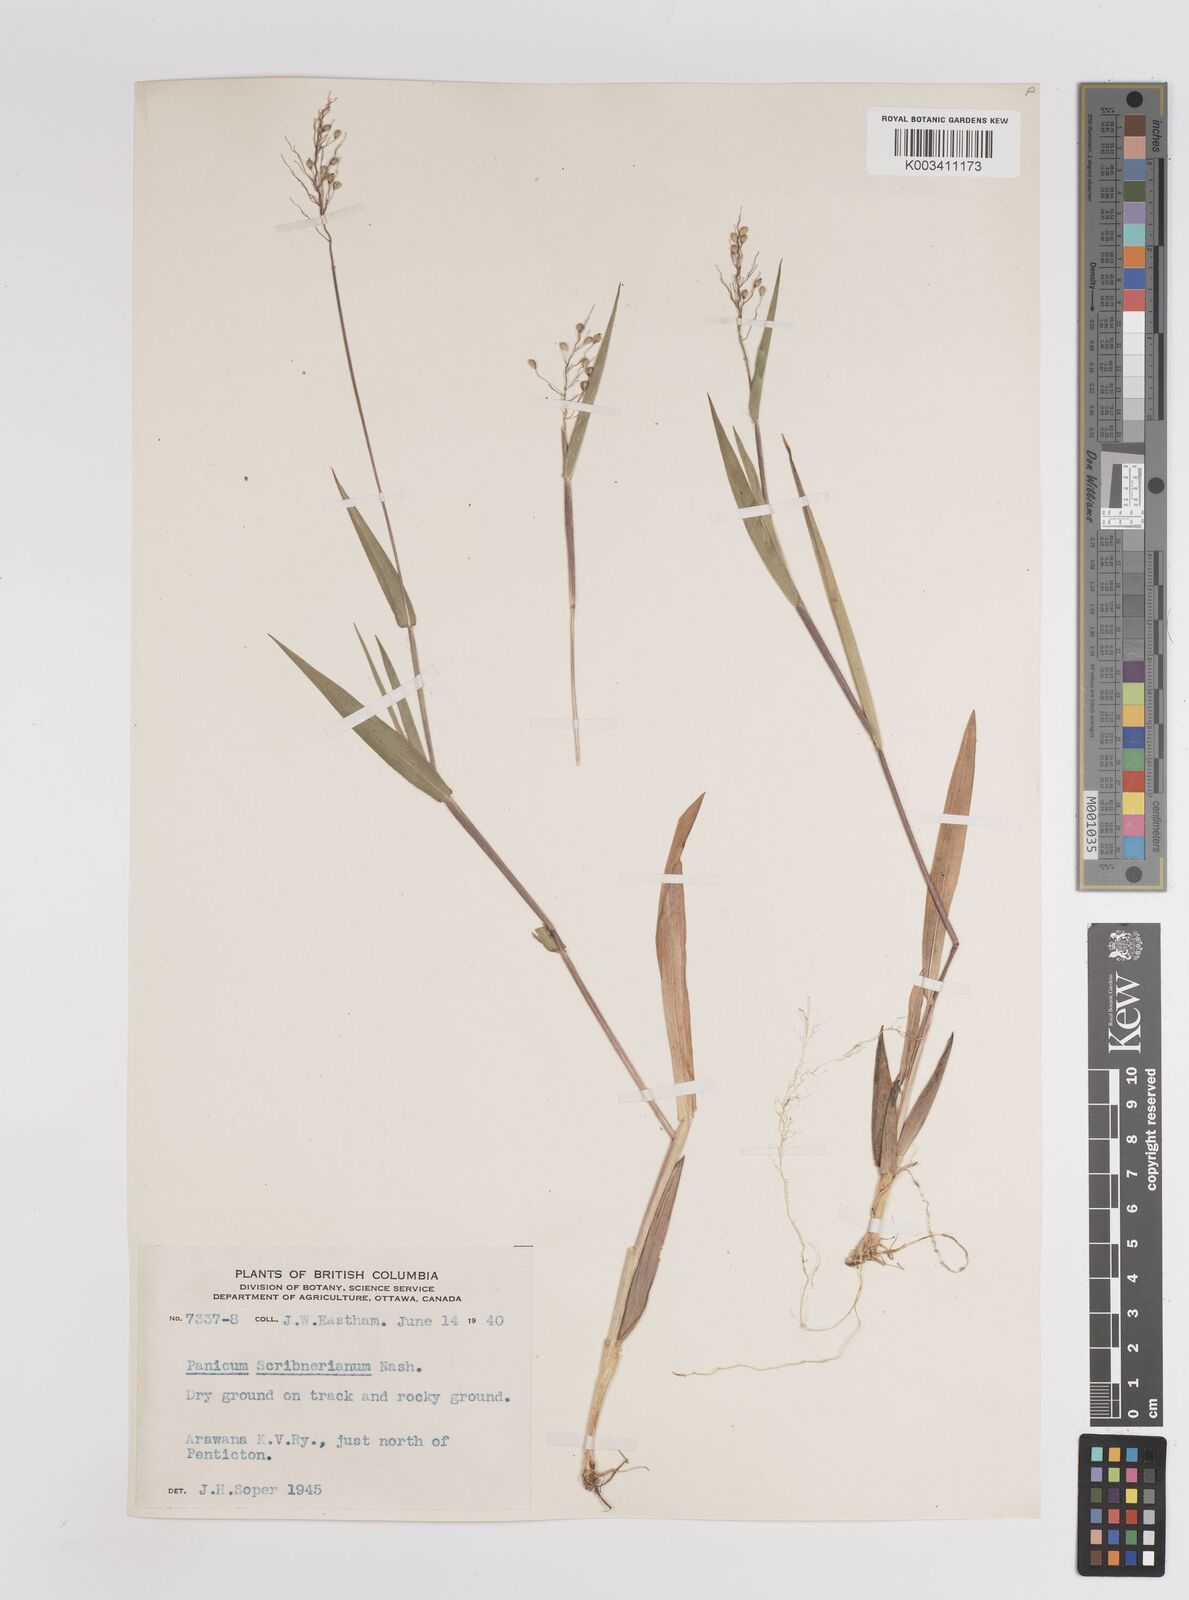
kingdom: Plantae
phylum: Tracheophyta
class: Liliopsida
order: Poales
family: Poaceae
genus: Dichanthelium
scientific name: Dichanthelium scribnerianum
